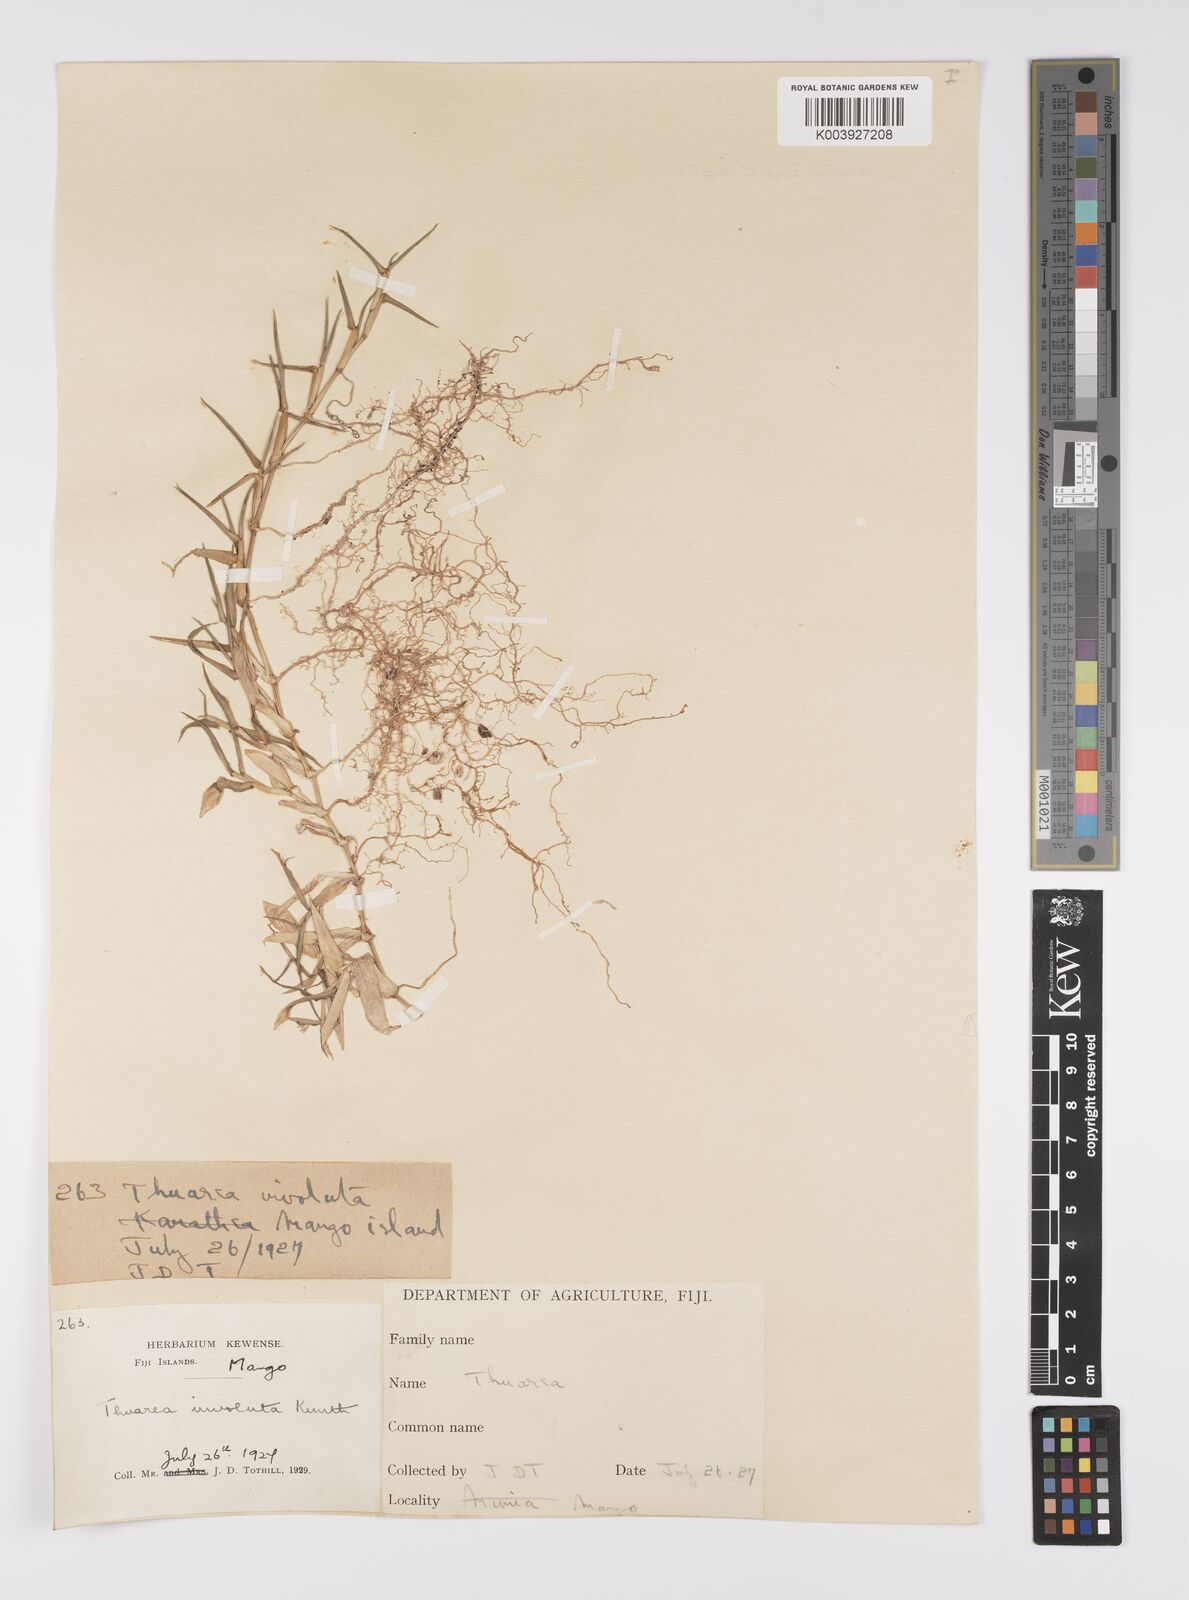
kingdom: Plantae
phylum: Tracheophyta
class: Liliopsida
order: Poales
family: Poaceae
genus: Thuarea
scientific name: Thuarea involuta
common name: Tropical beach grass
